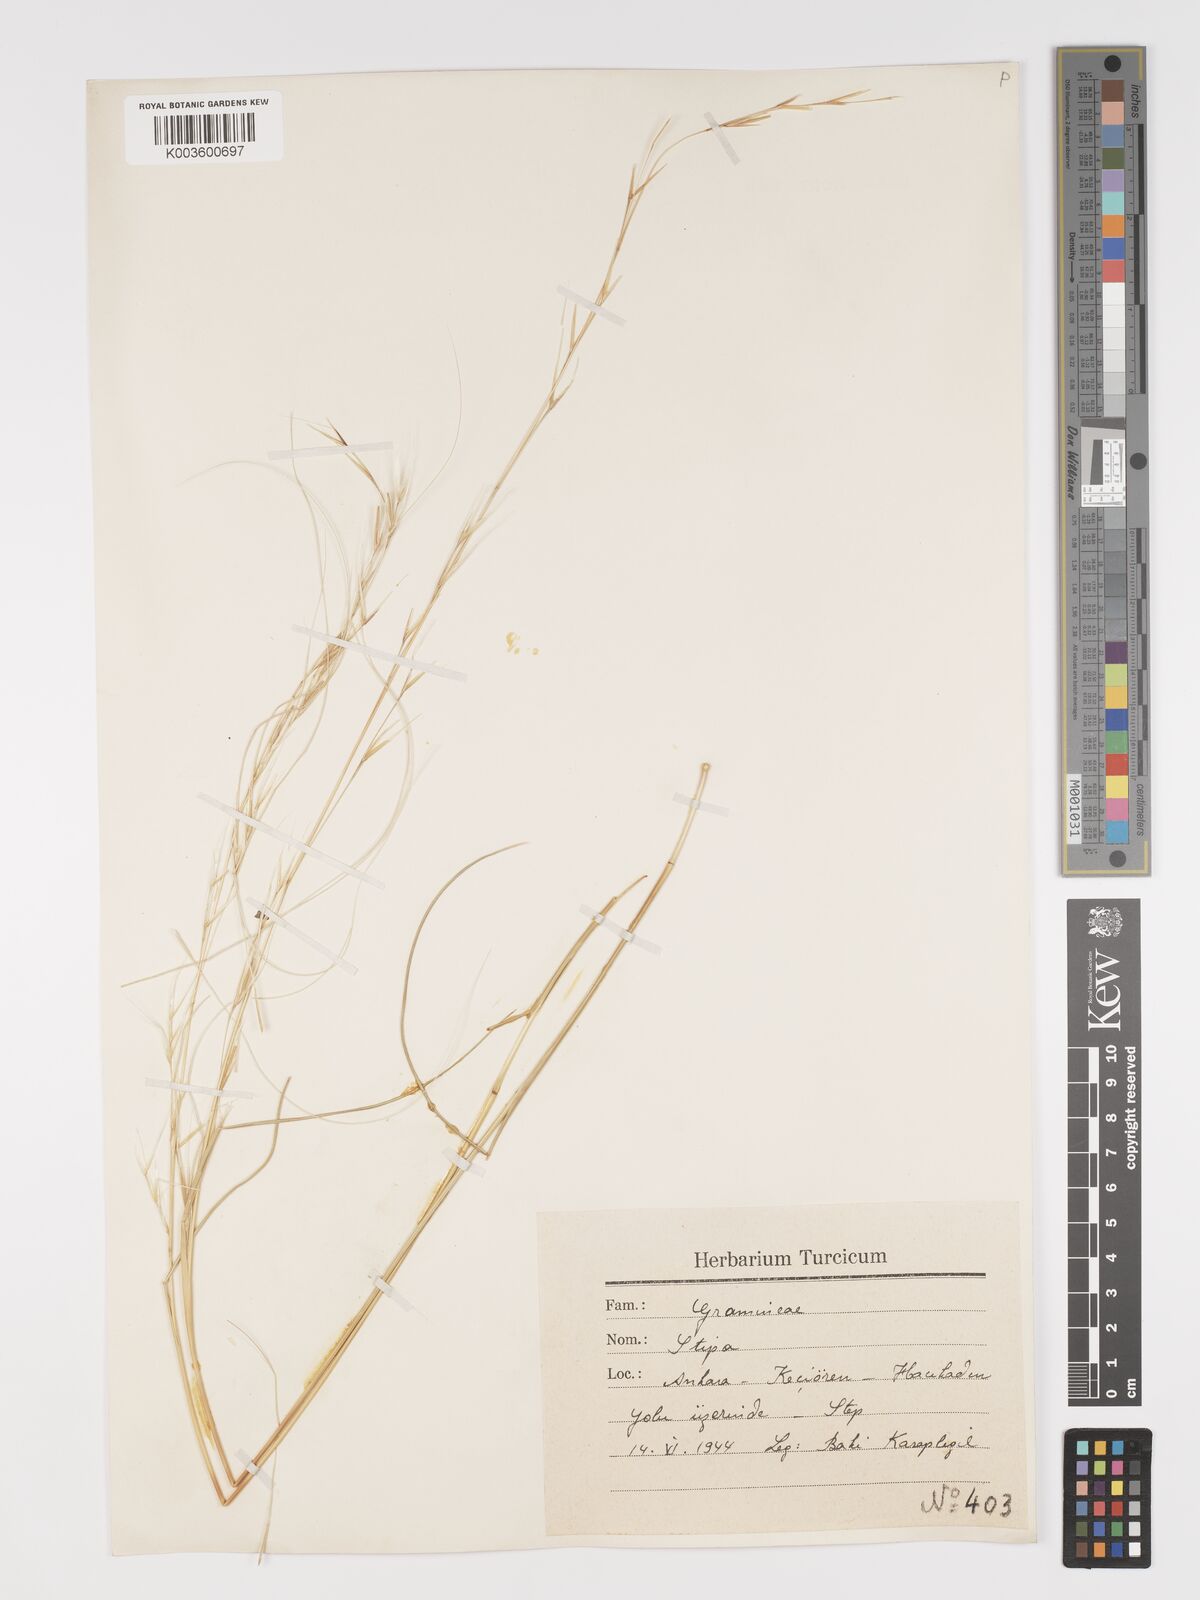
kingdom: Plantae
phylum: Tracheophyta
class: Liliopsida
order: Poales
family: Poaceae
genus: Stipa
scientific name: Stipa holosericea
